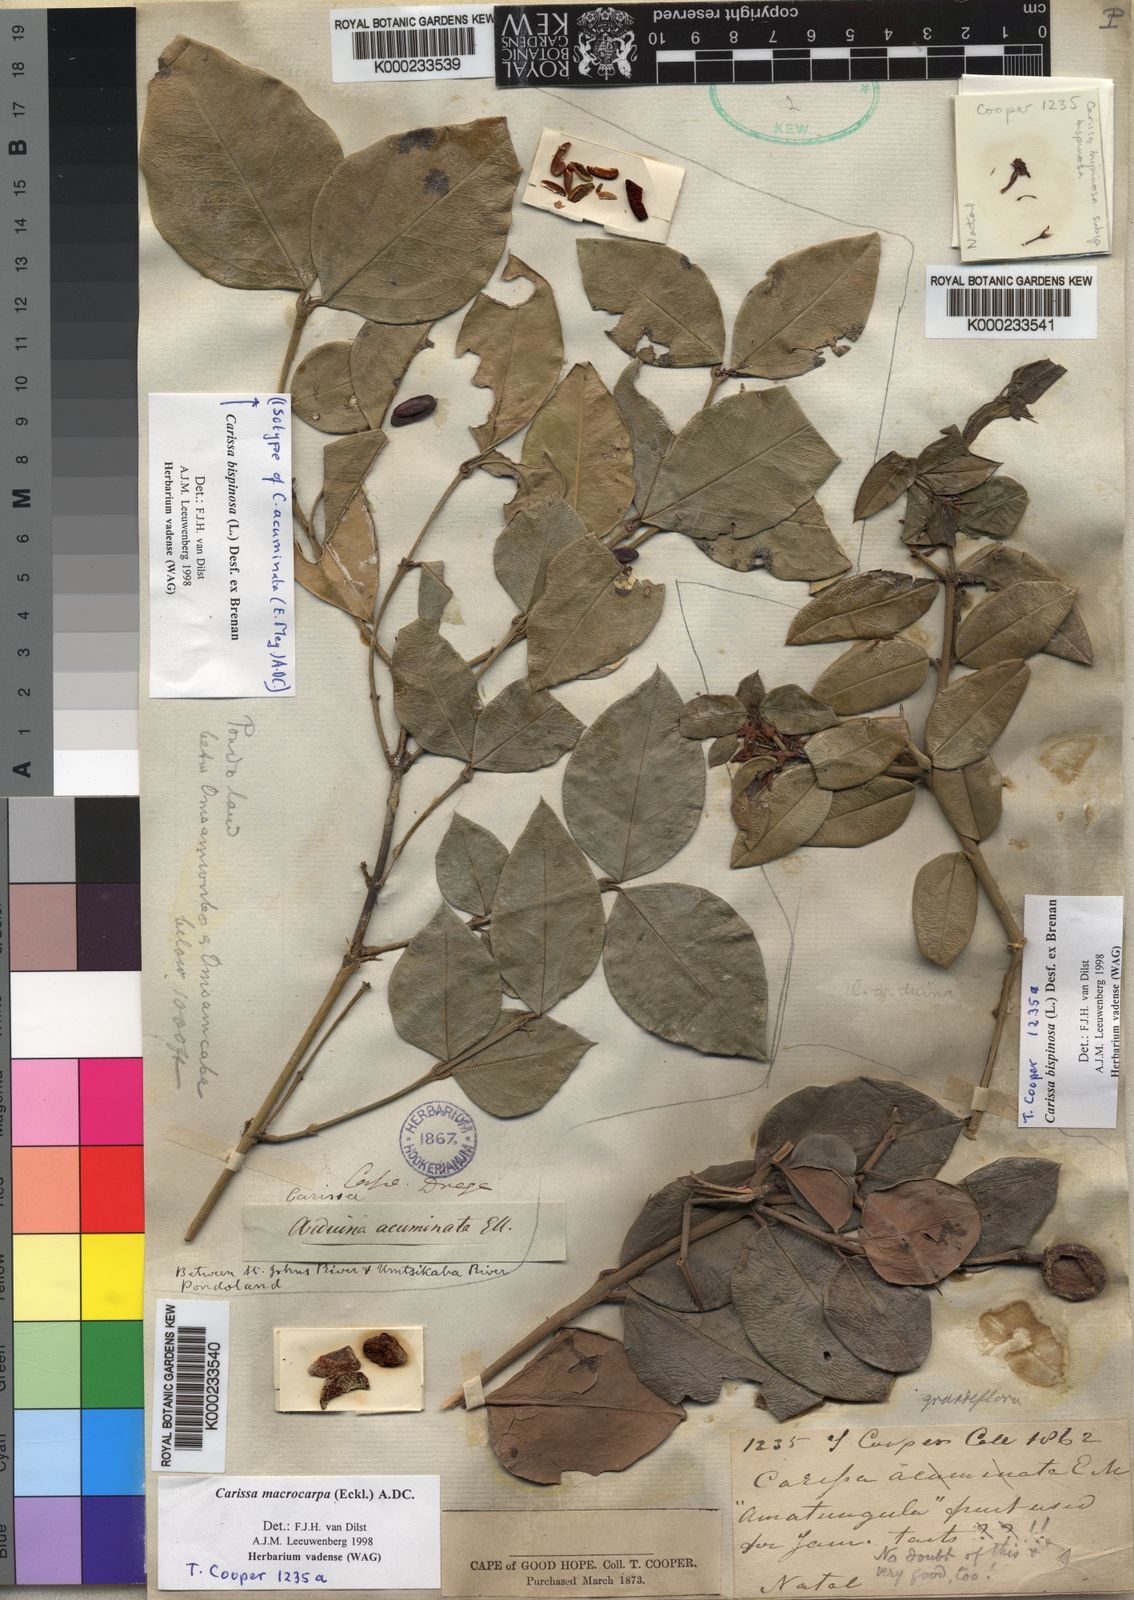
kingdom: Plantae
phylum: Tracheophyta
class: Magnoliopsida
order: Gentianales
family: Apocynaceae
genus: Carissa
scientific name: Carissa bispinosa
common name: Forest num-num
